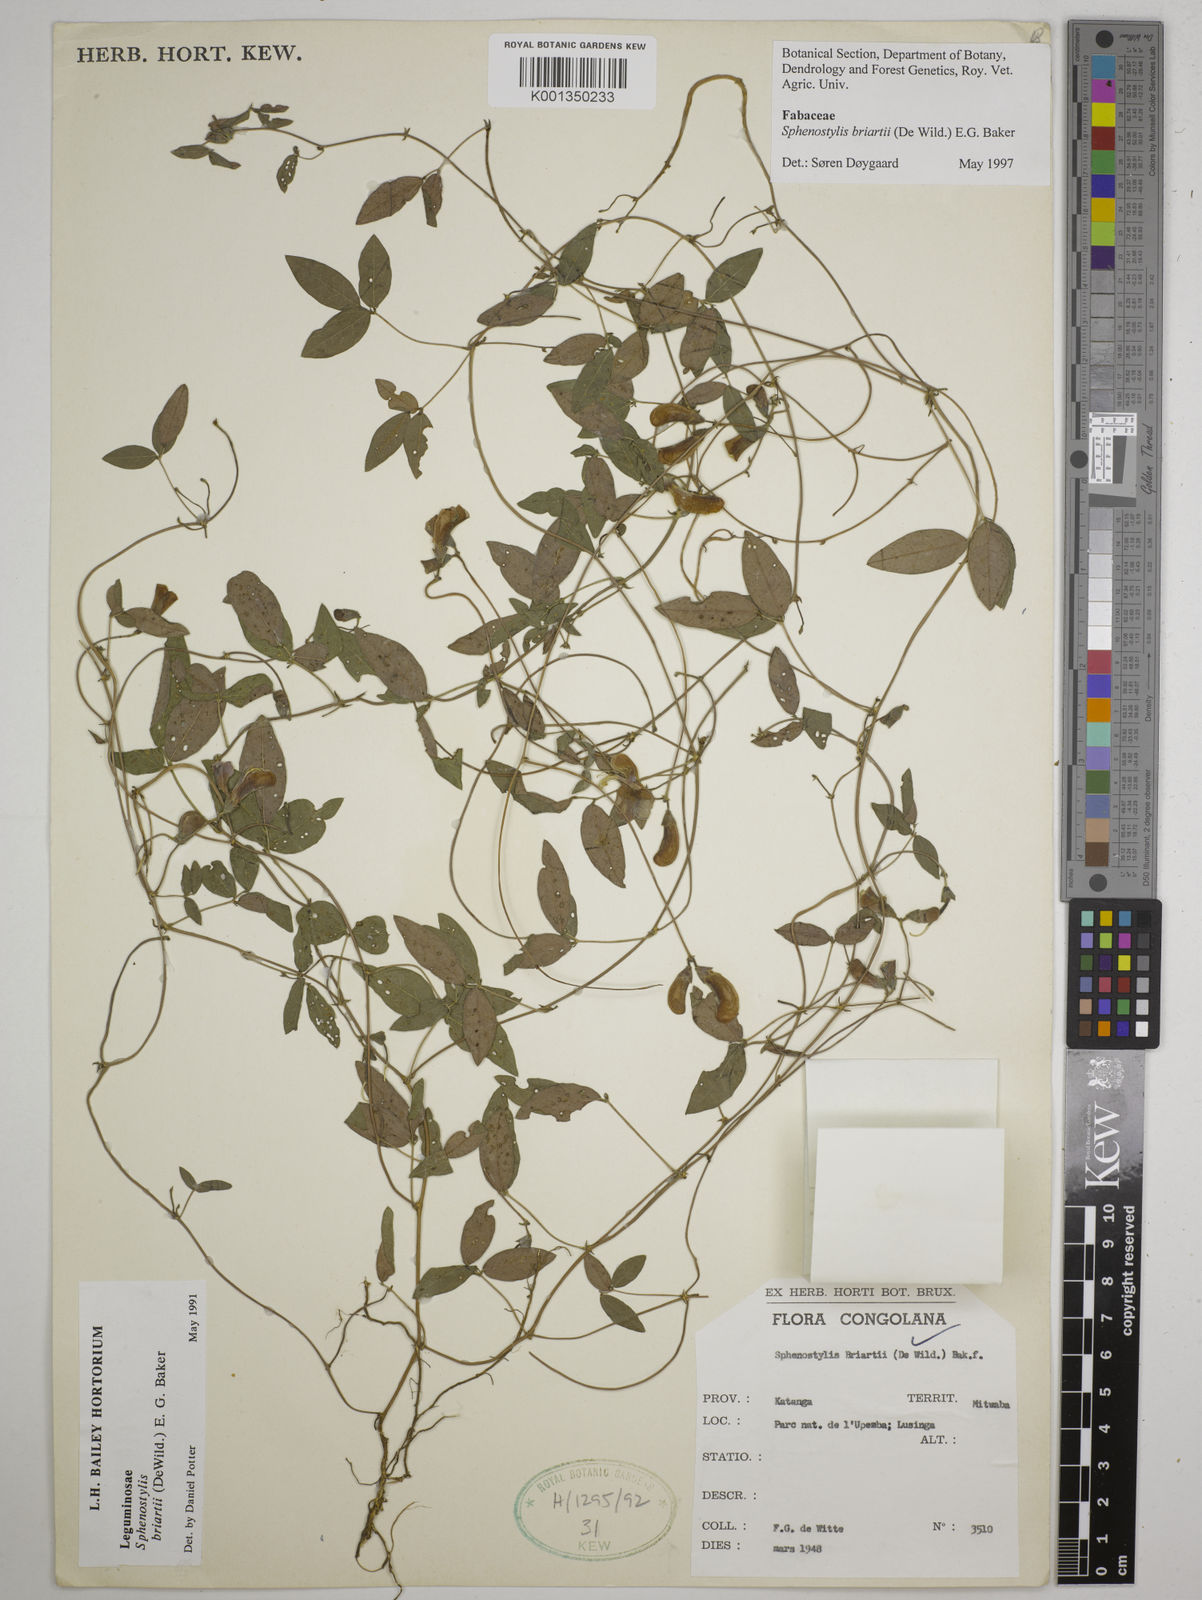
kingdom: Plantae
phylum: Tracheophyta
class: Magnoliopsida
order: Fabales
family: Fabaceae
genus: Sphenostylis
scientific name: Sphenostylis briartii
